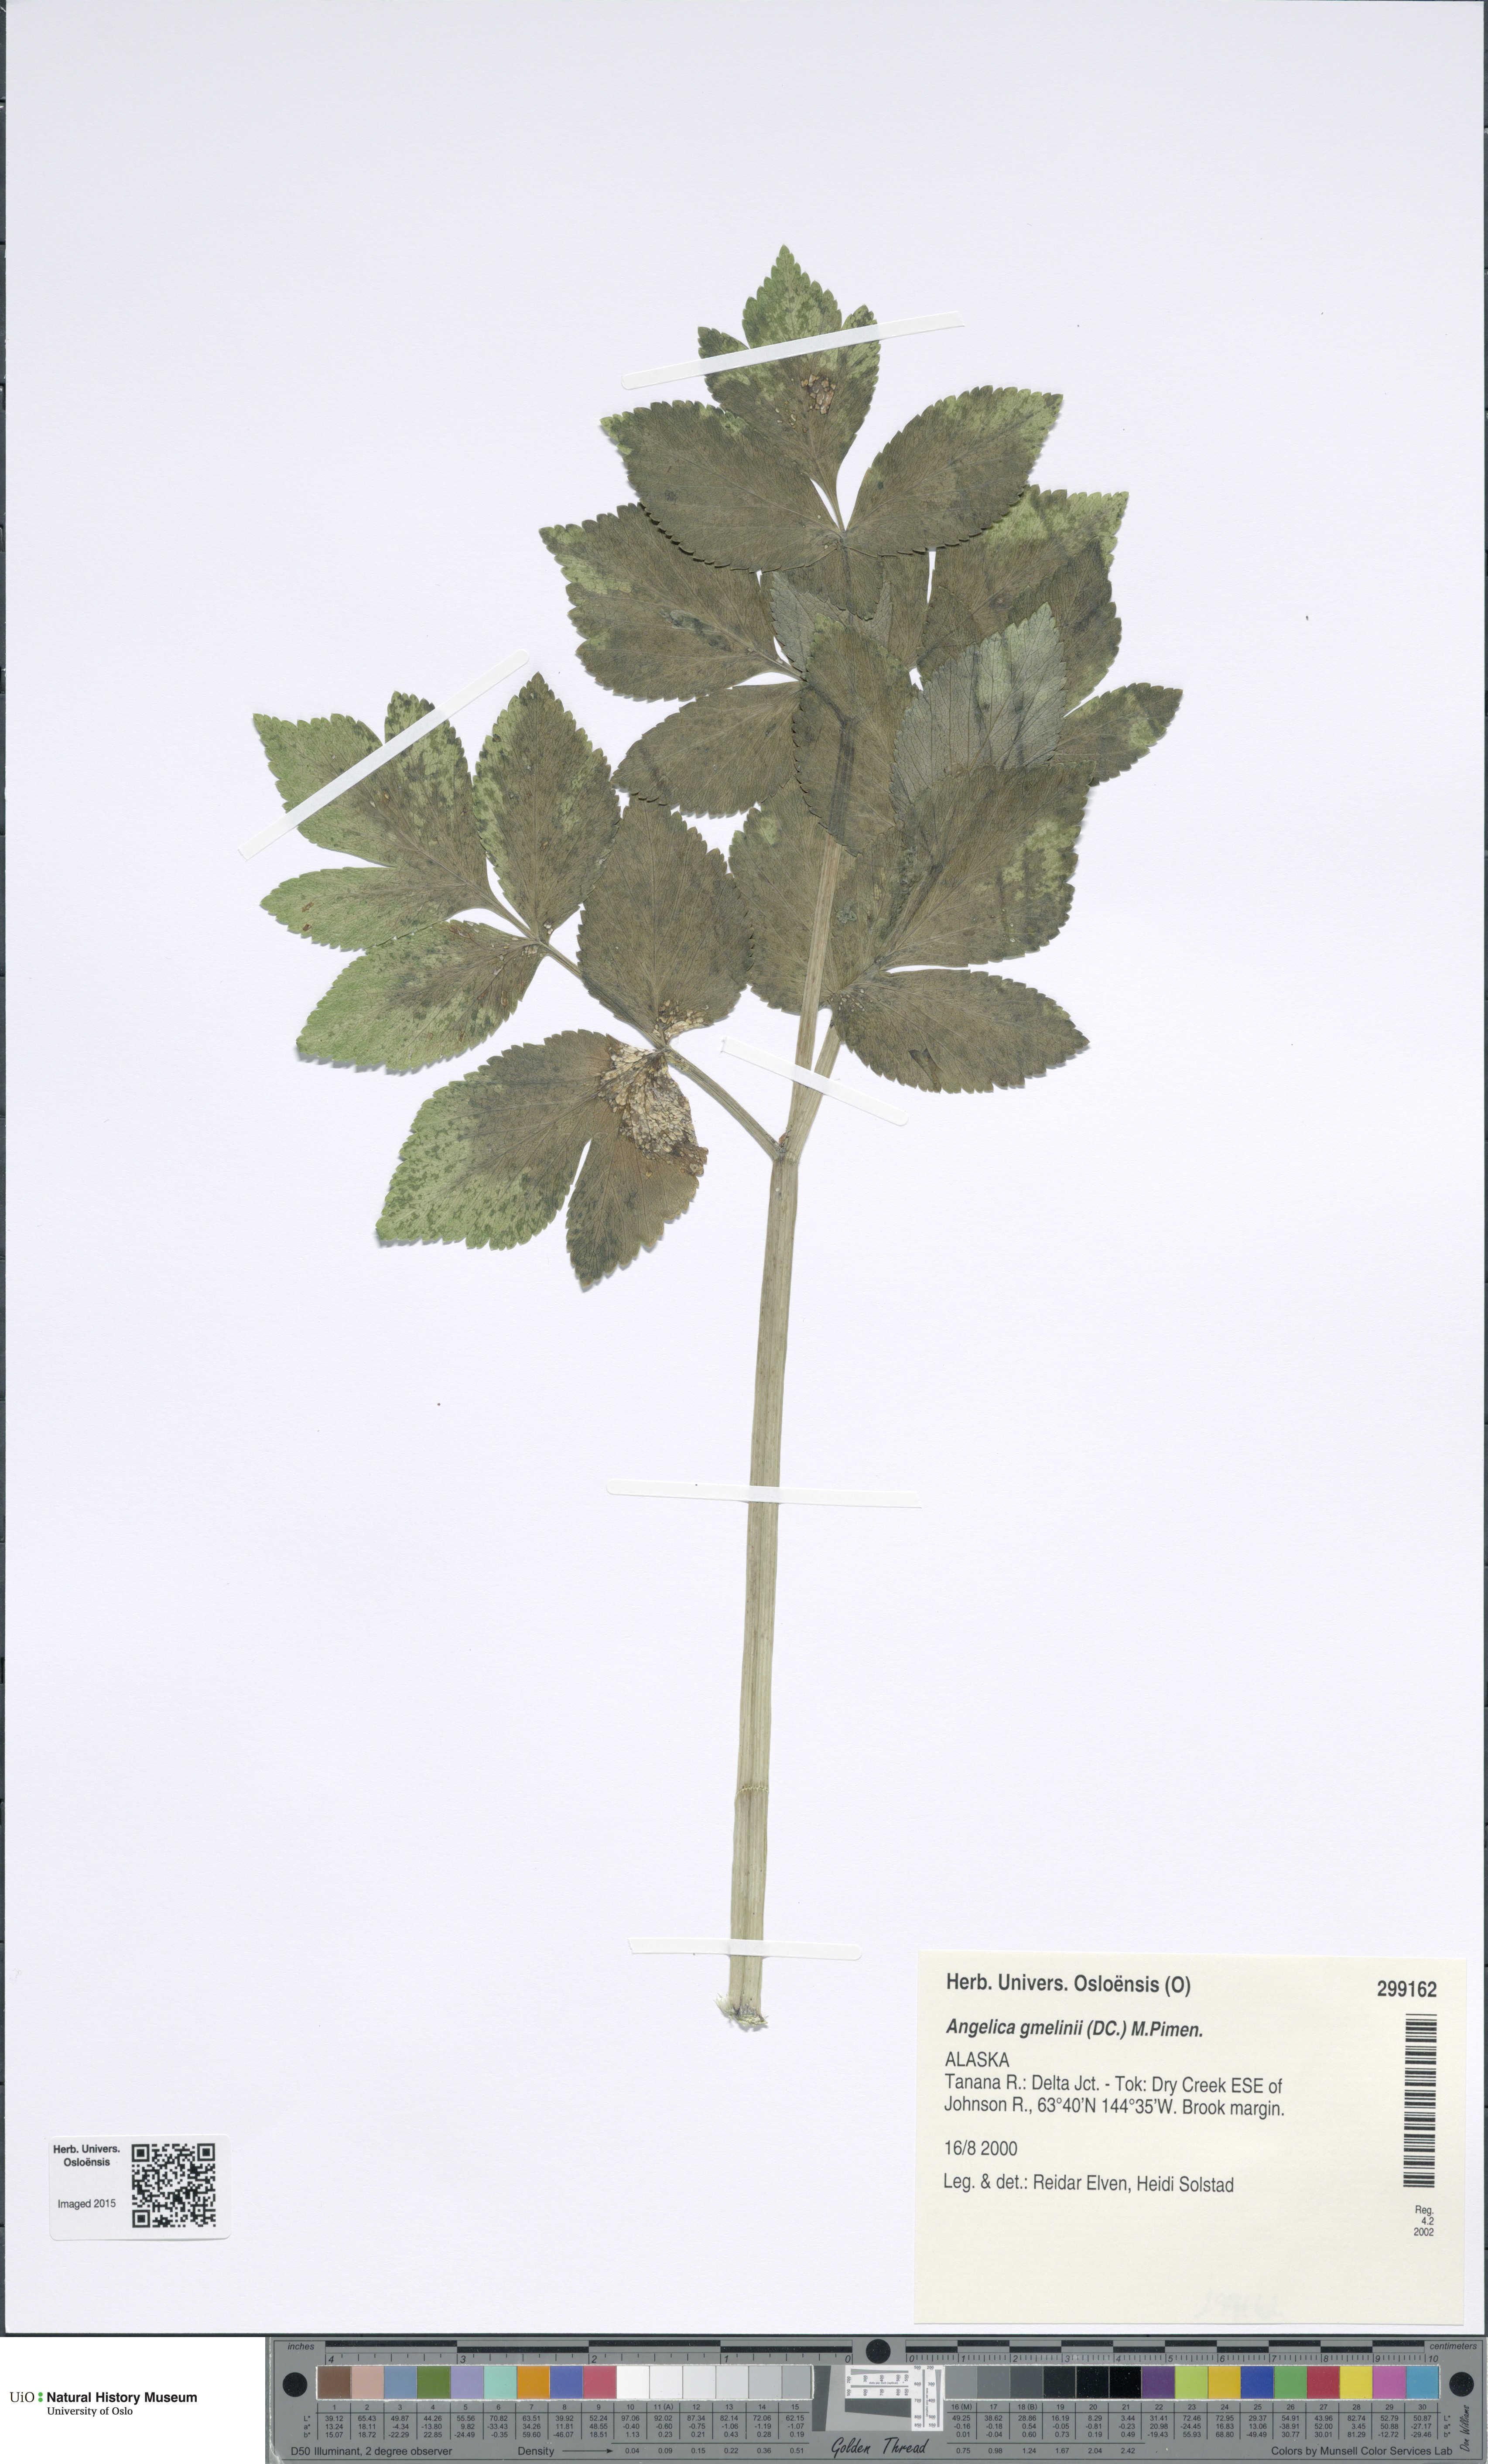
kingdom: Plantae
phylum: Tracheophyta
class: Magnoliopsida
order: Apiales
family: Apiaceae
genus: Angelica
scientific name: Angelica gmelinii
